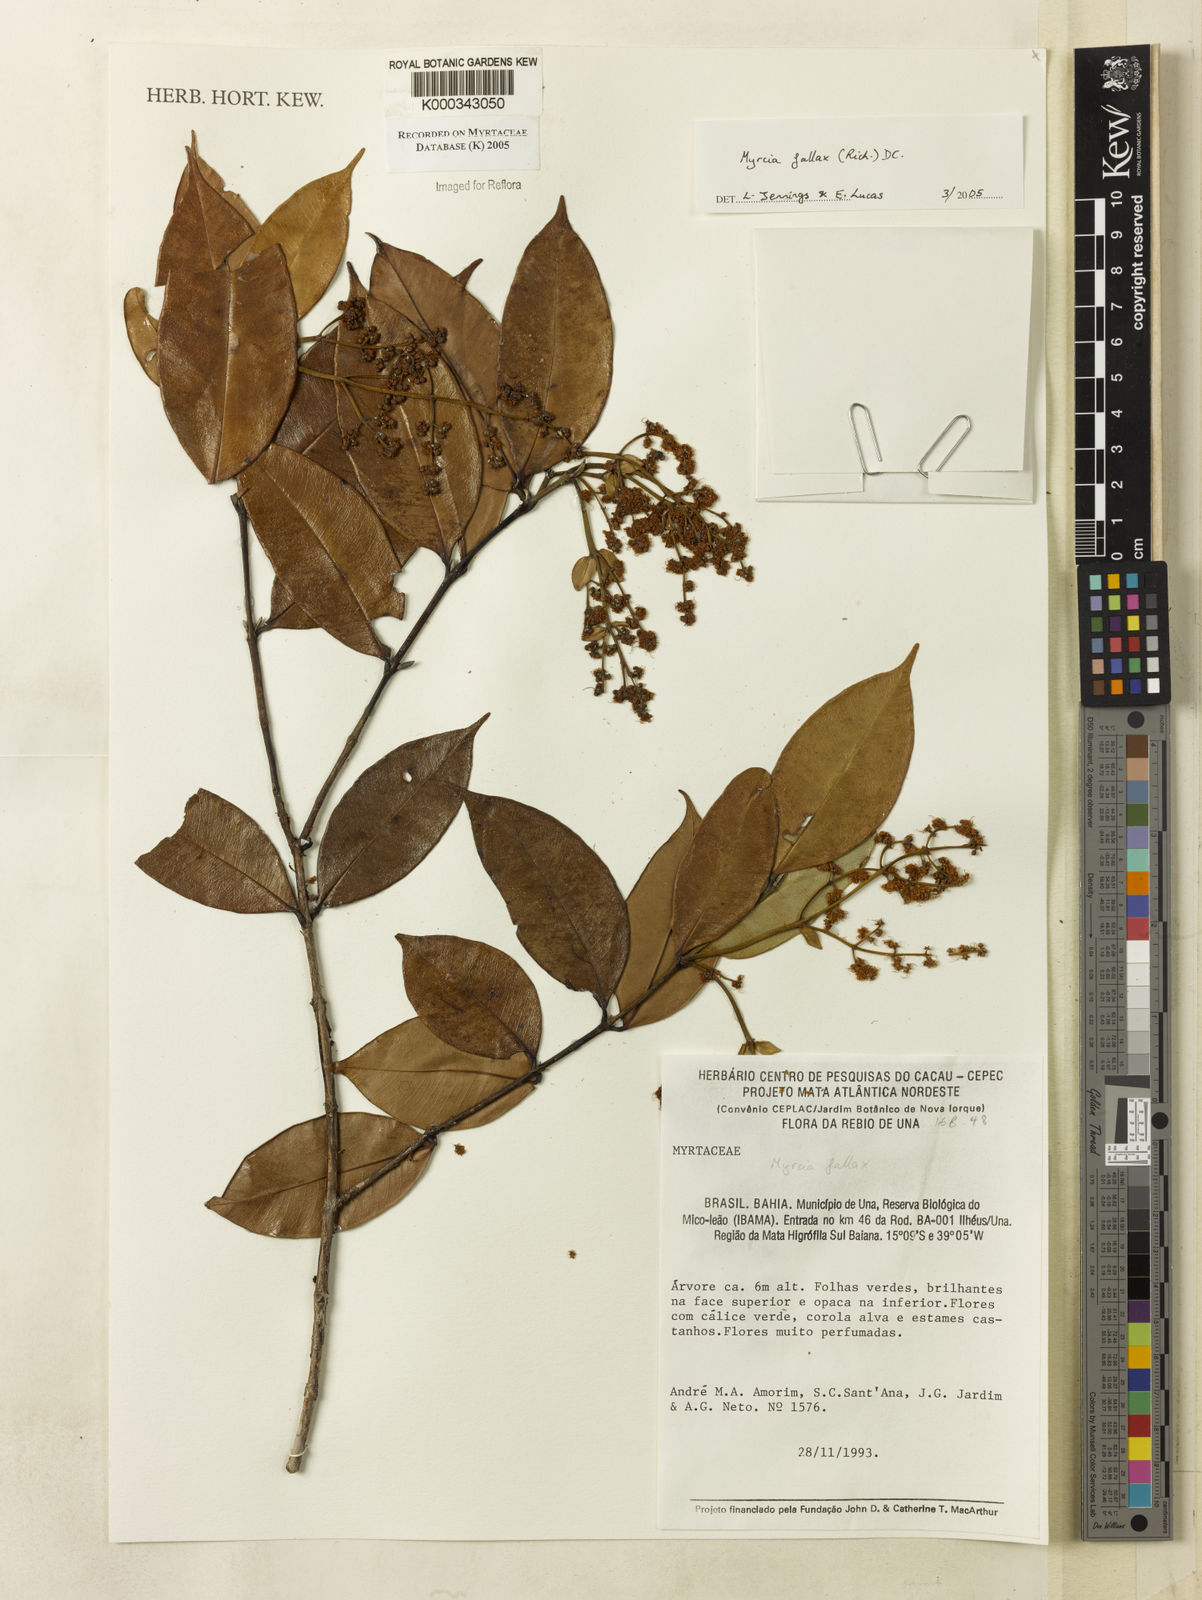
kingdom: Plantae
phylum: Tracheophyta
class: Magnoliopsida
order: Myrtales
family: Myrtaceae
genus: Myrcia
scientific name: Myrcia splendens
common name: Surinam cherry
